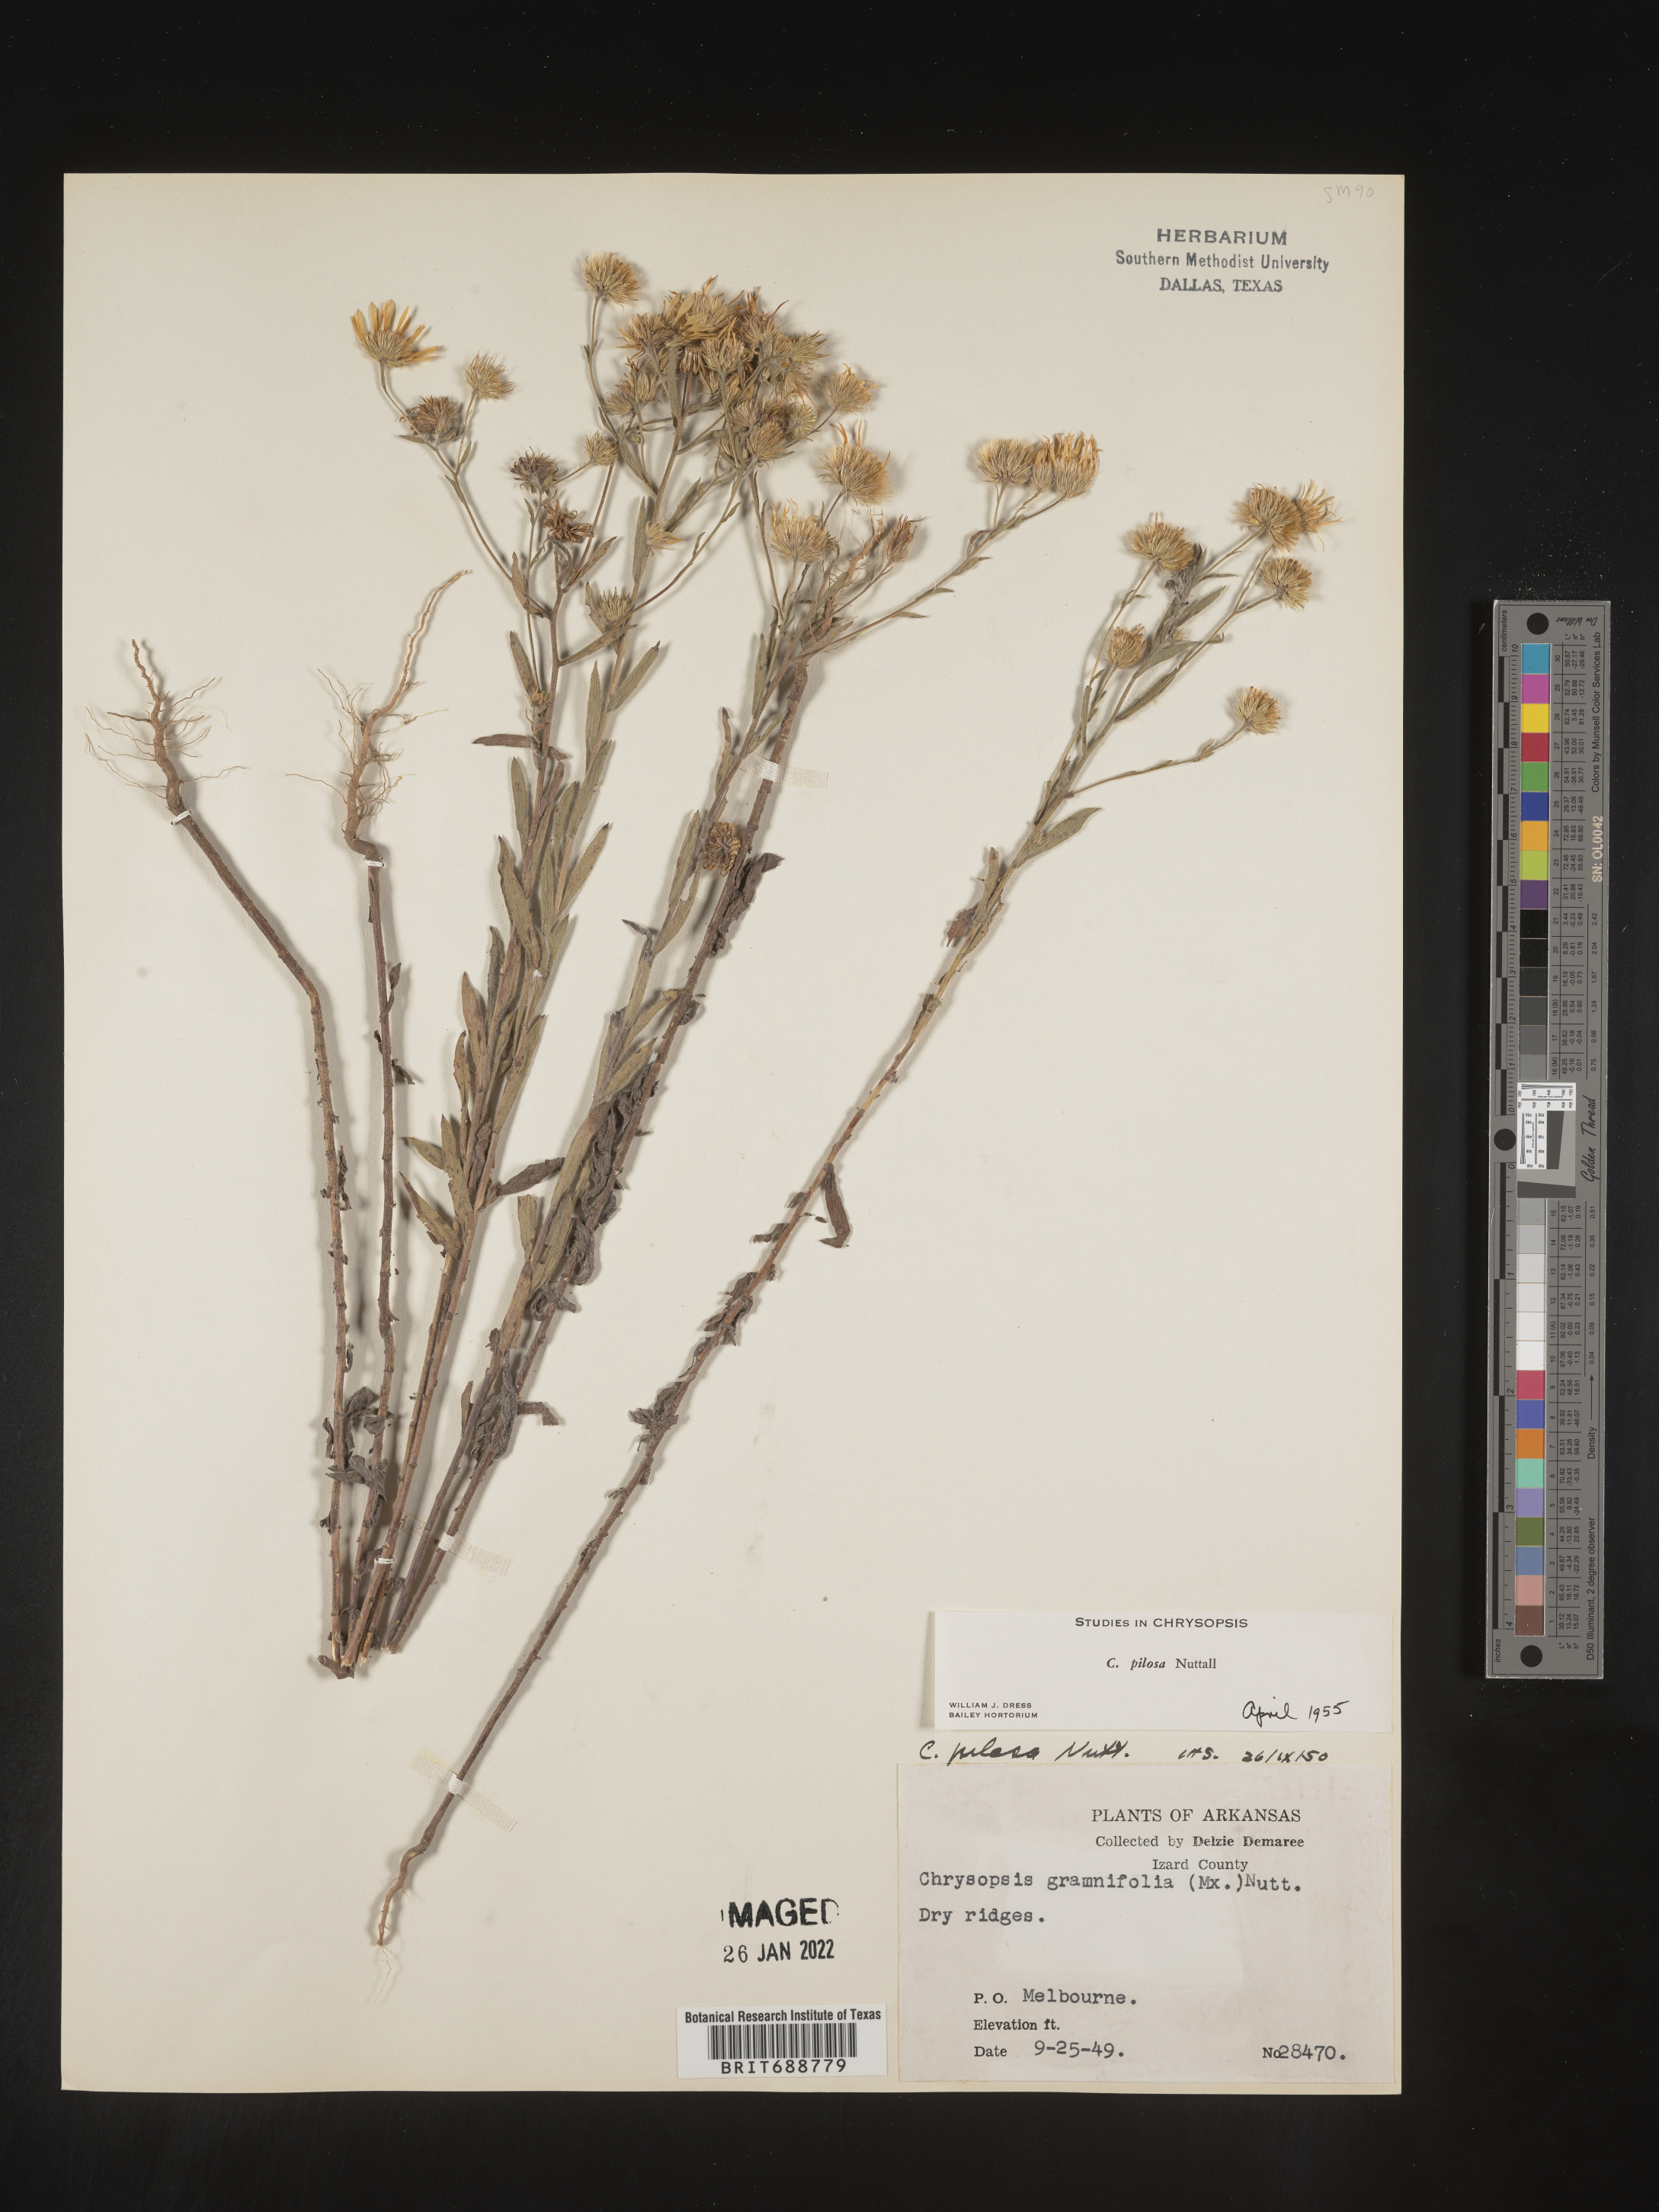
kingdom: Plantae
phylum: Tracheophyta
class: Magnoliopsida
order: Asterales
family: Asteraceae
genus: Bradburia
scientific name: Bradburia pilosa
